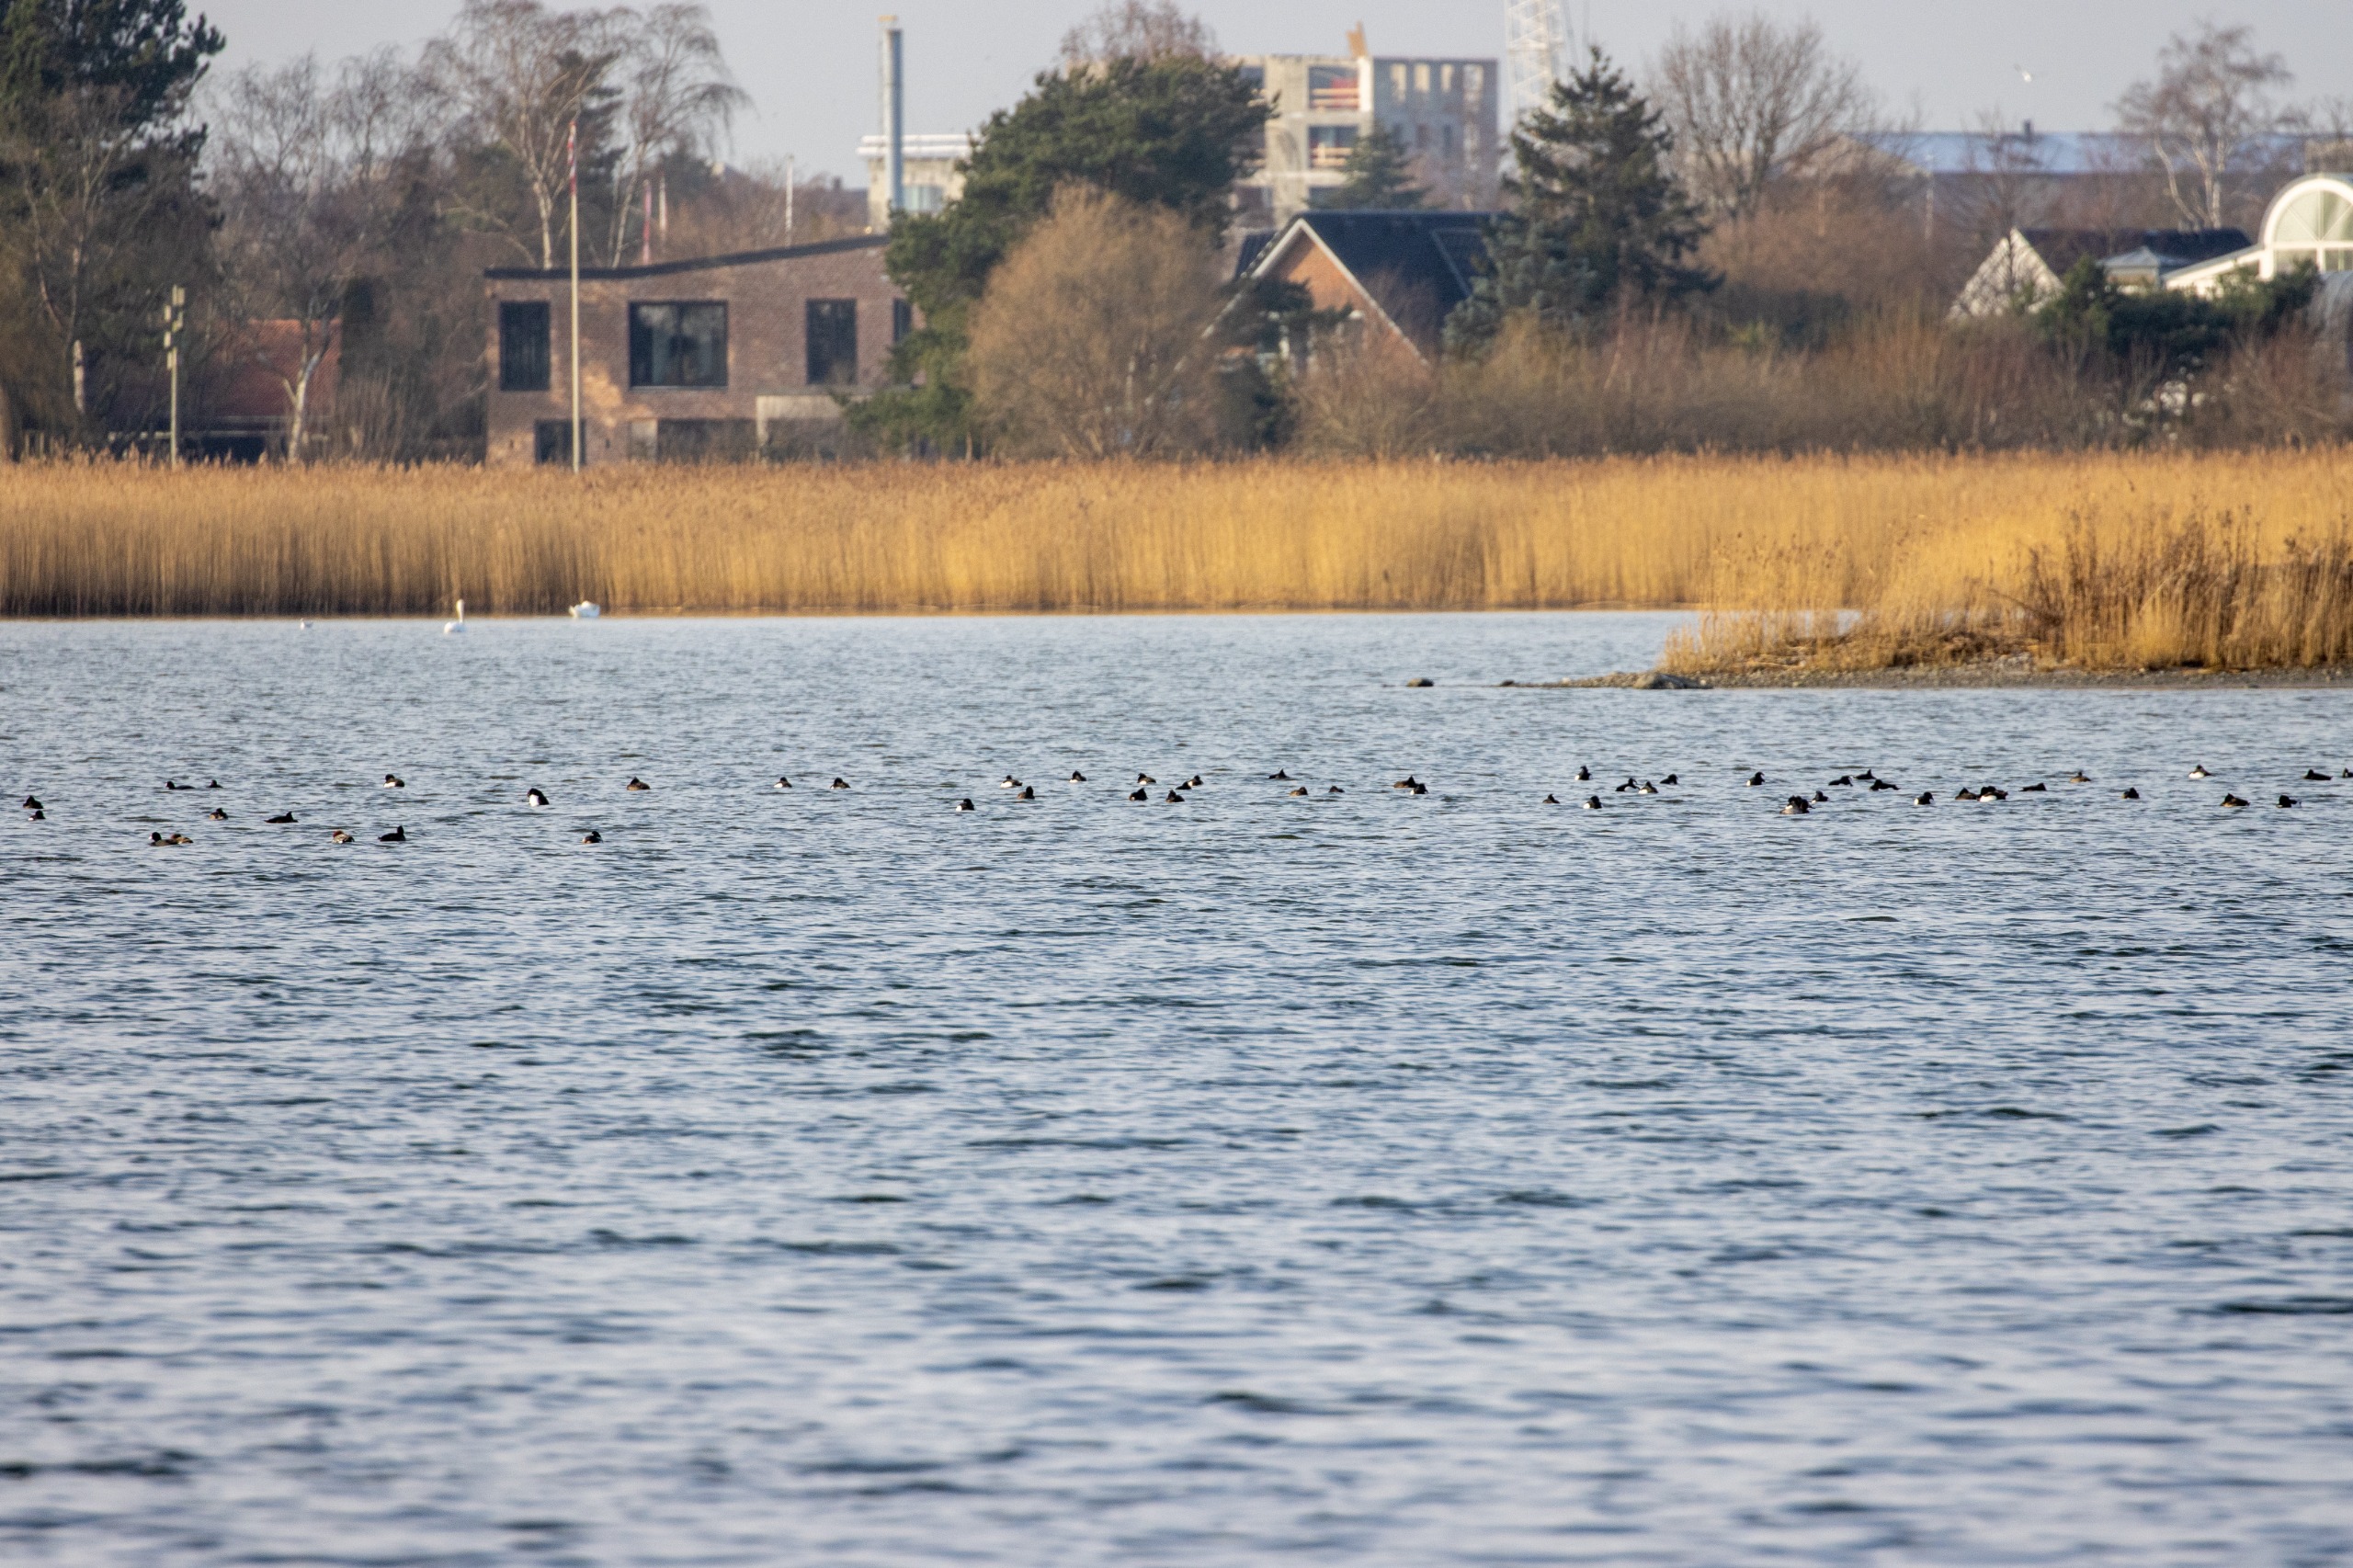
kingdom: Animalia
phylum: Chordata
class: Aves
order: Anseriformes
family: Anatidae
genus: Aythya
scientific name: Aythya fuligula
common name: Troldand
